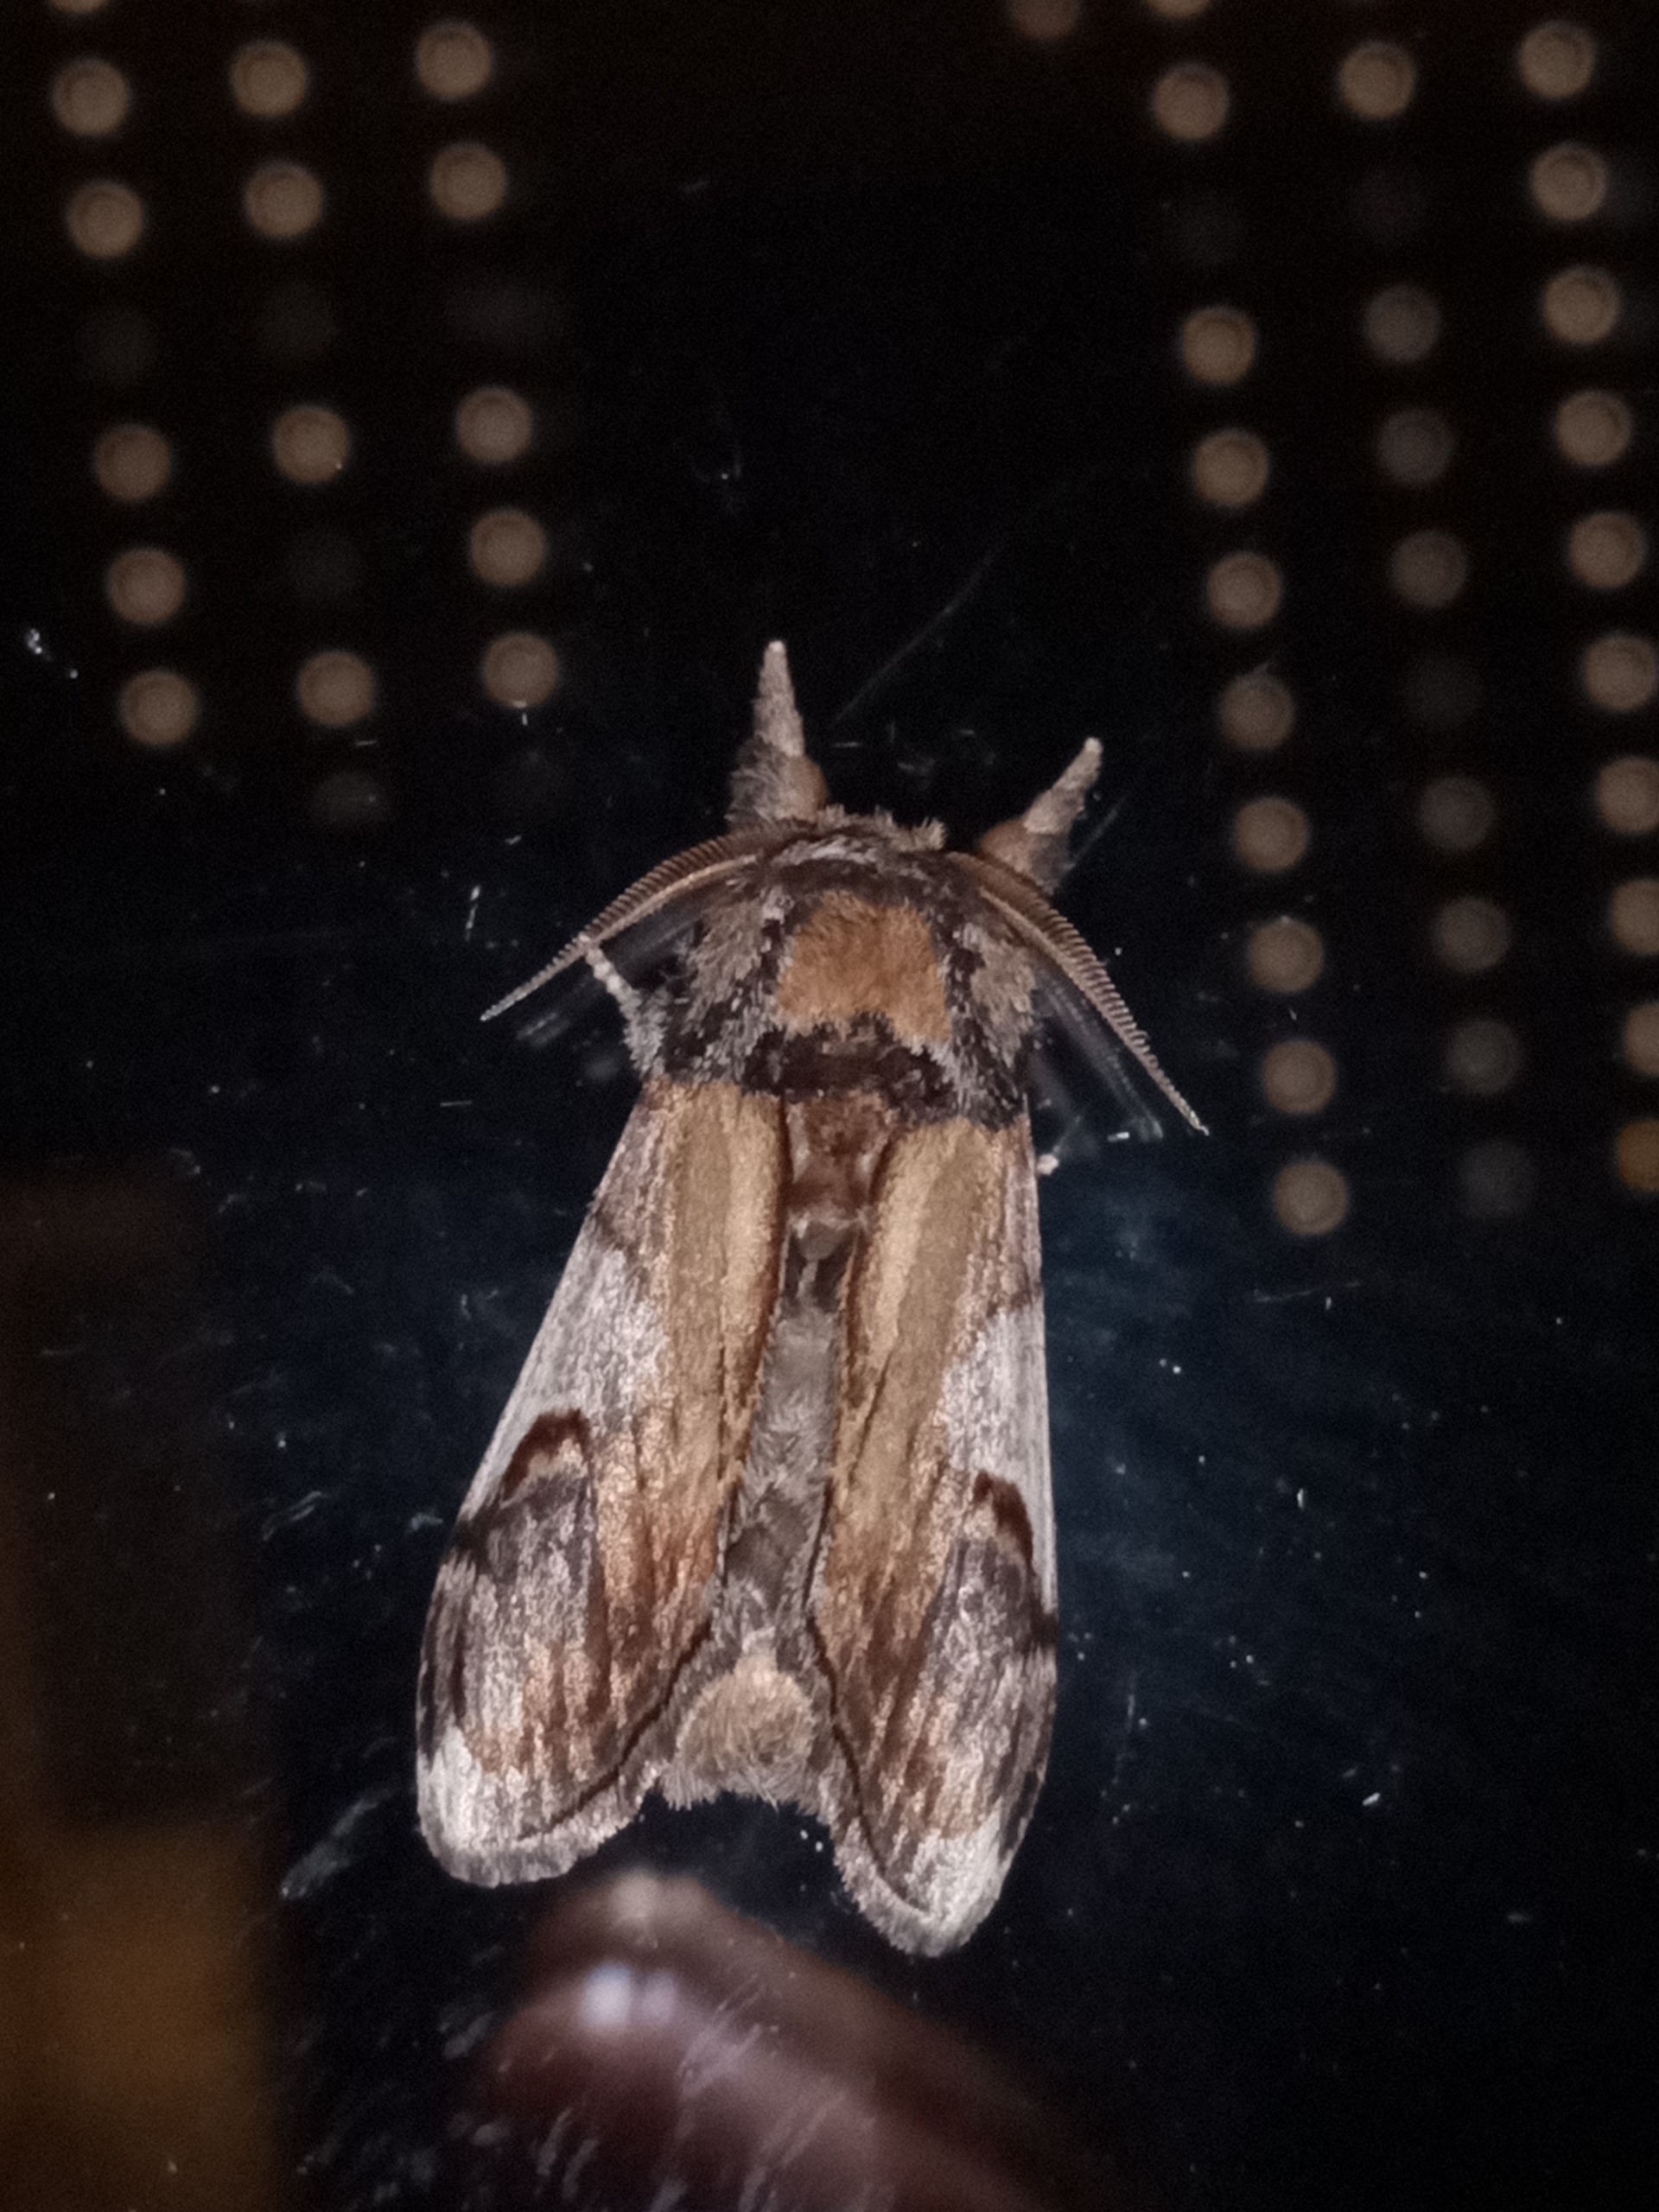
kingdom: Animalia
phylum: Arthropoda
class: Insecta
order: Lepidoptera
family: Notodontidae
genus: Notodonta
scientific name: Notodonta ziczac
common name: Zigzagspinder
